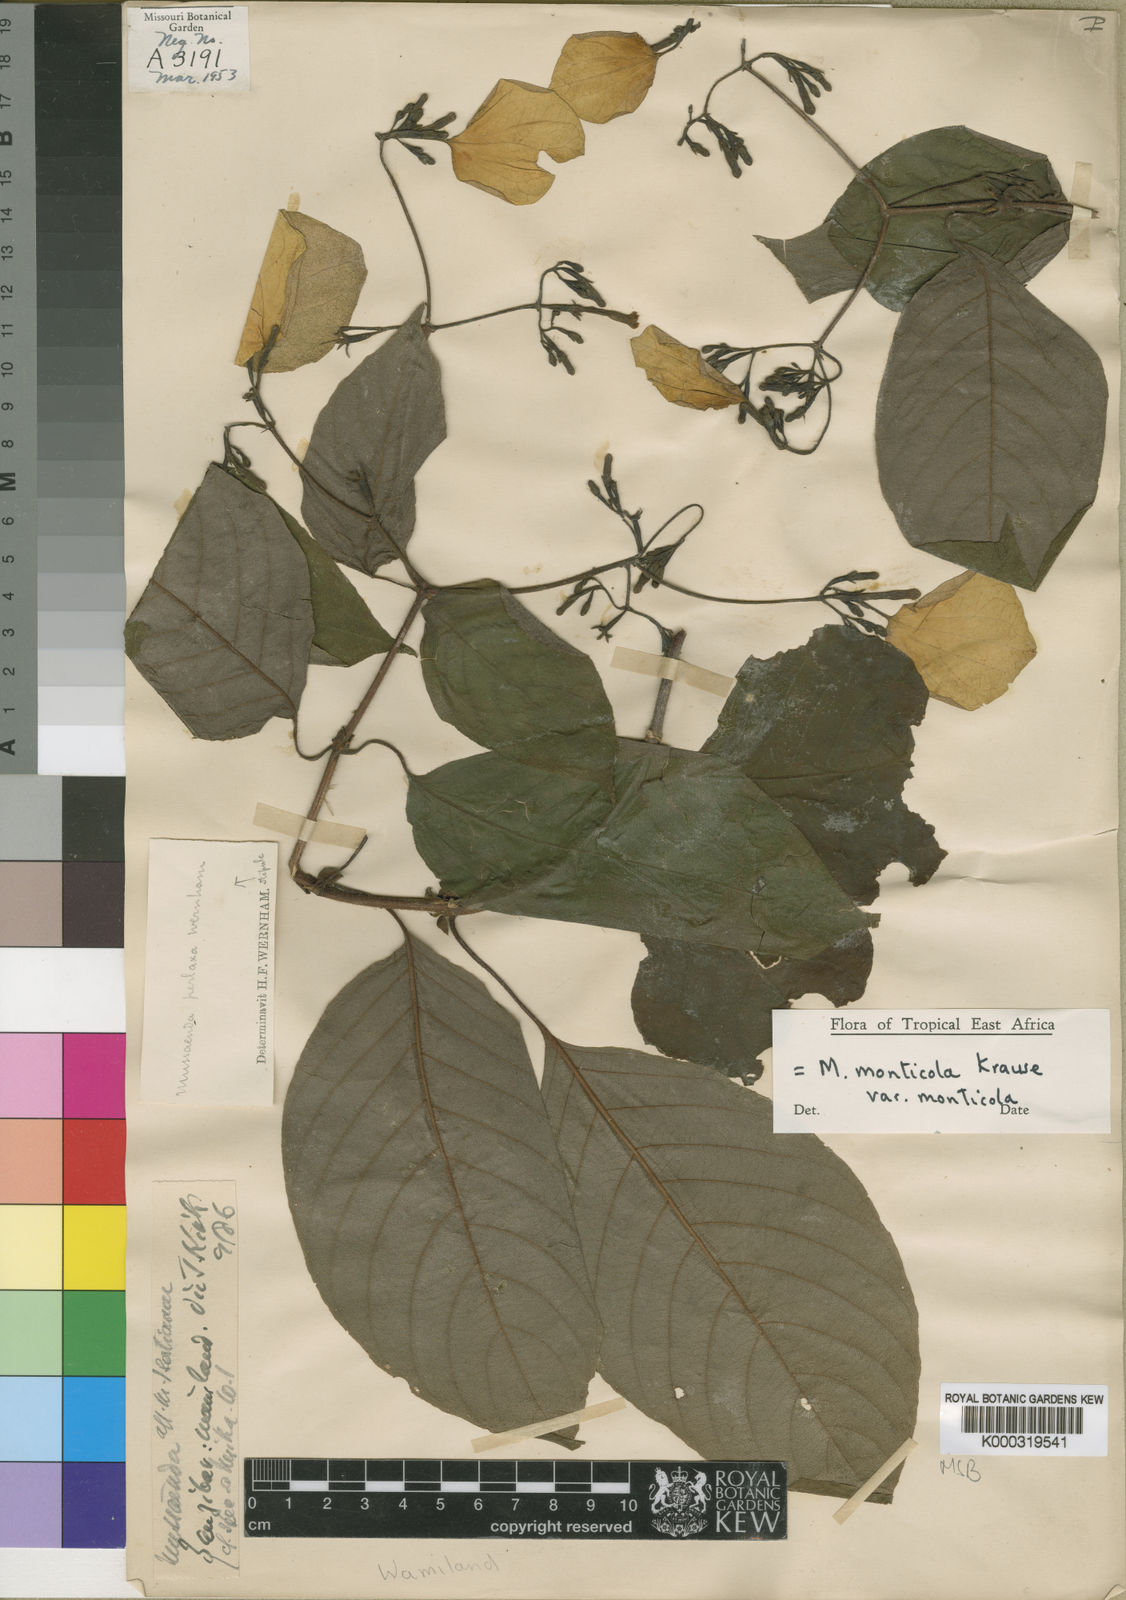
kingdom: Plantae
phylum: Tracheophyta
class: Magnoliopsida
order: Gentianales
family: Rubiaceae
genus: Mussaenda
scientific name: Mussaenda monticola
